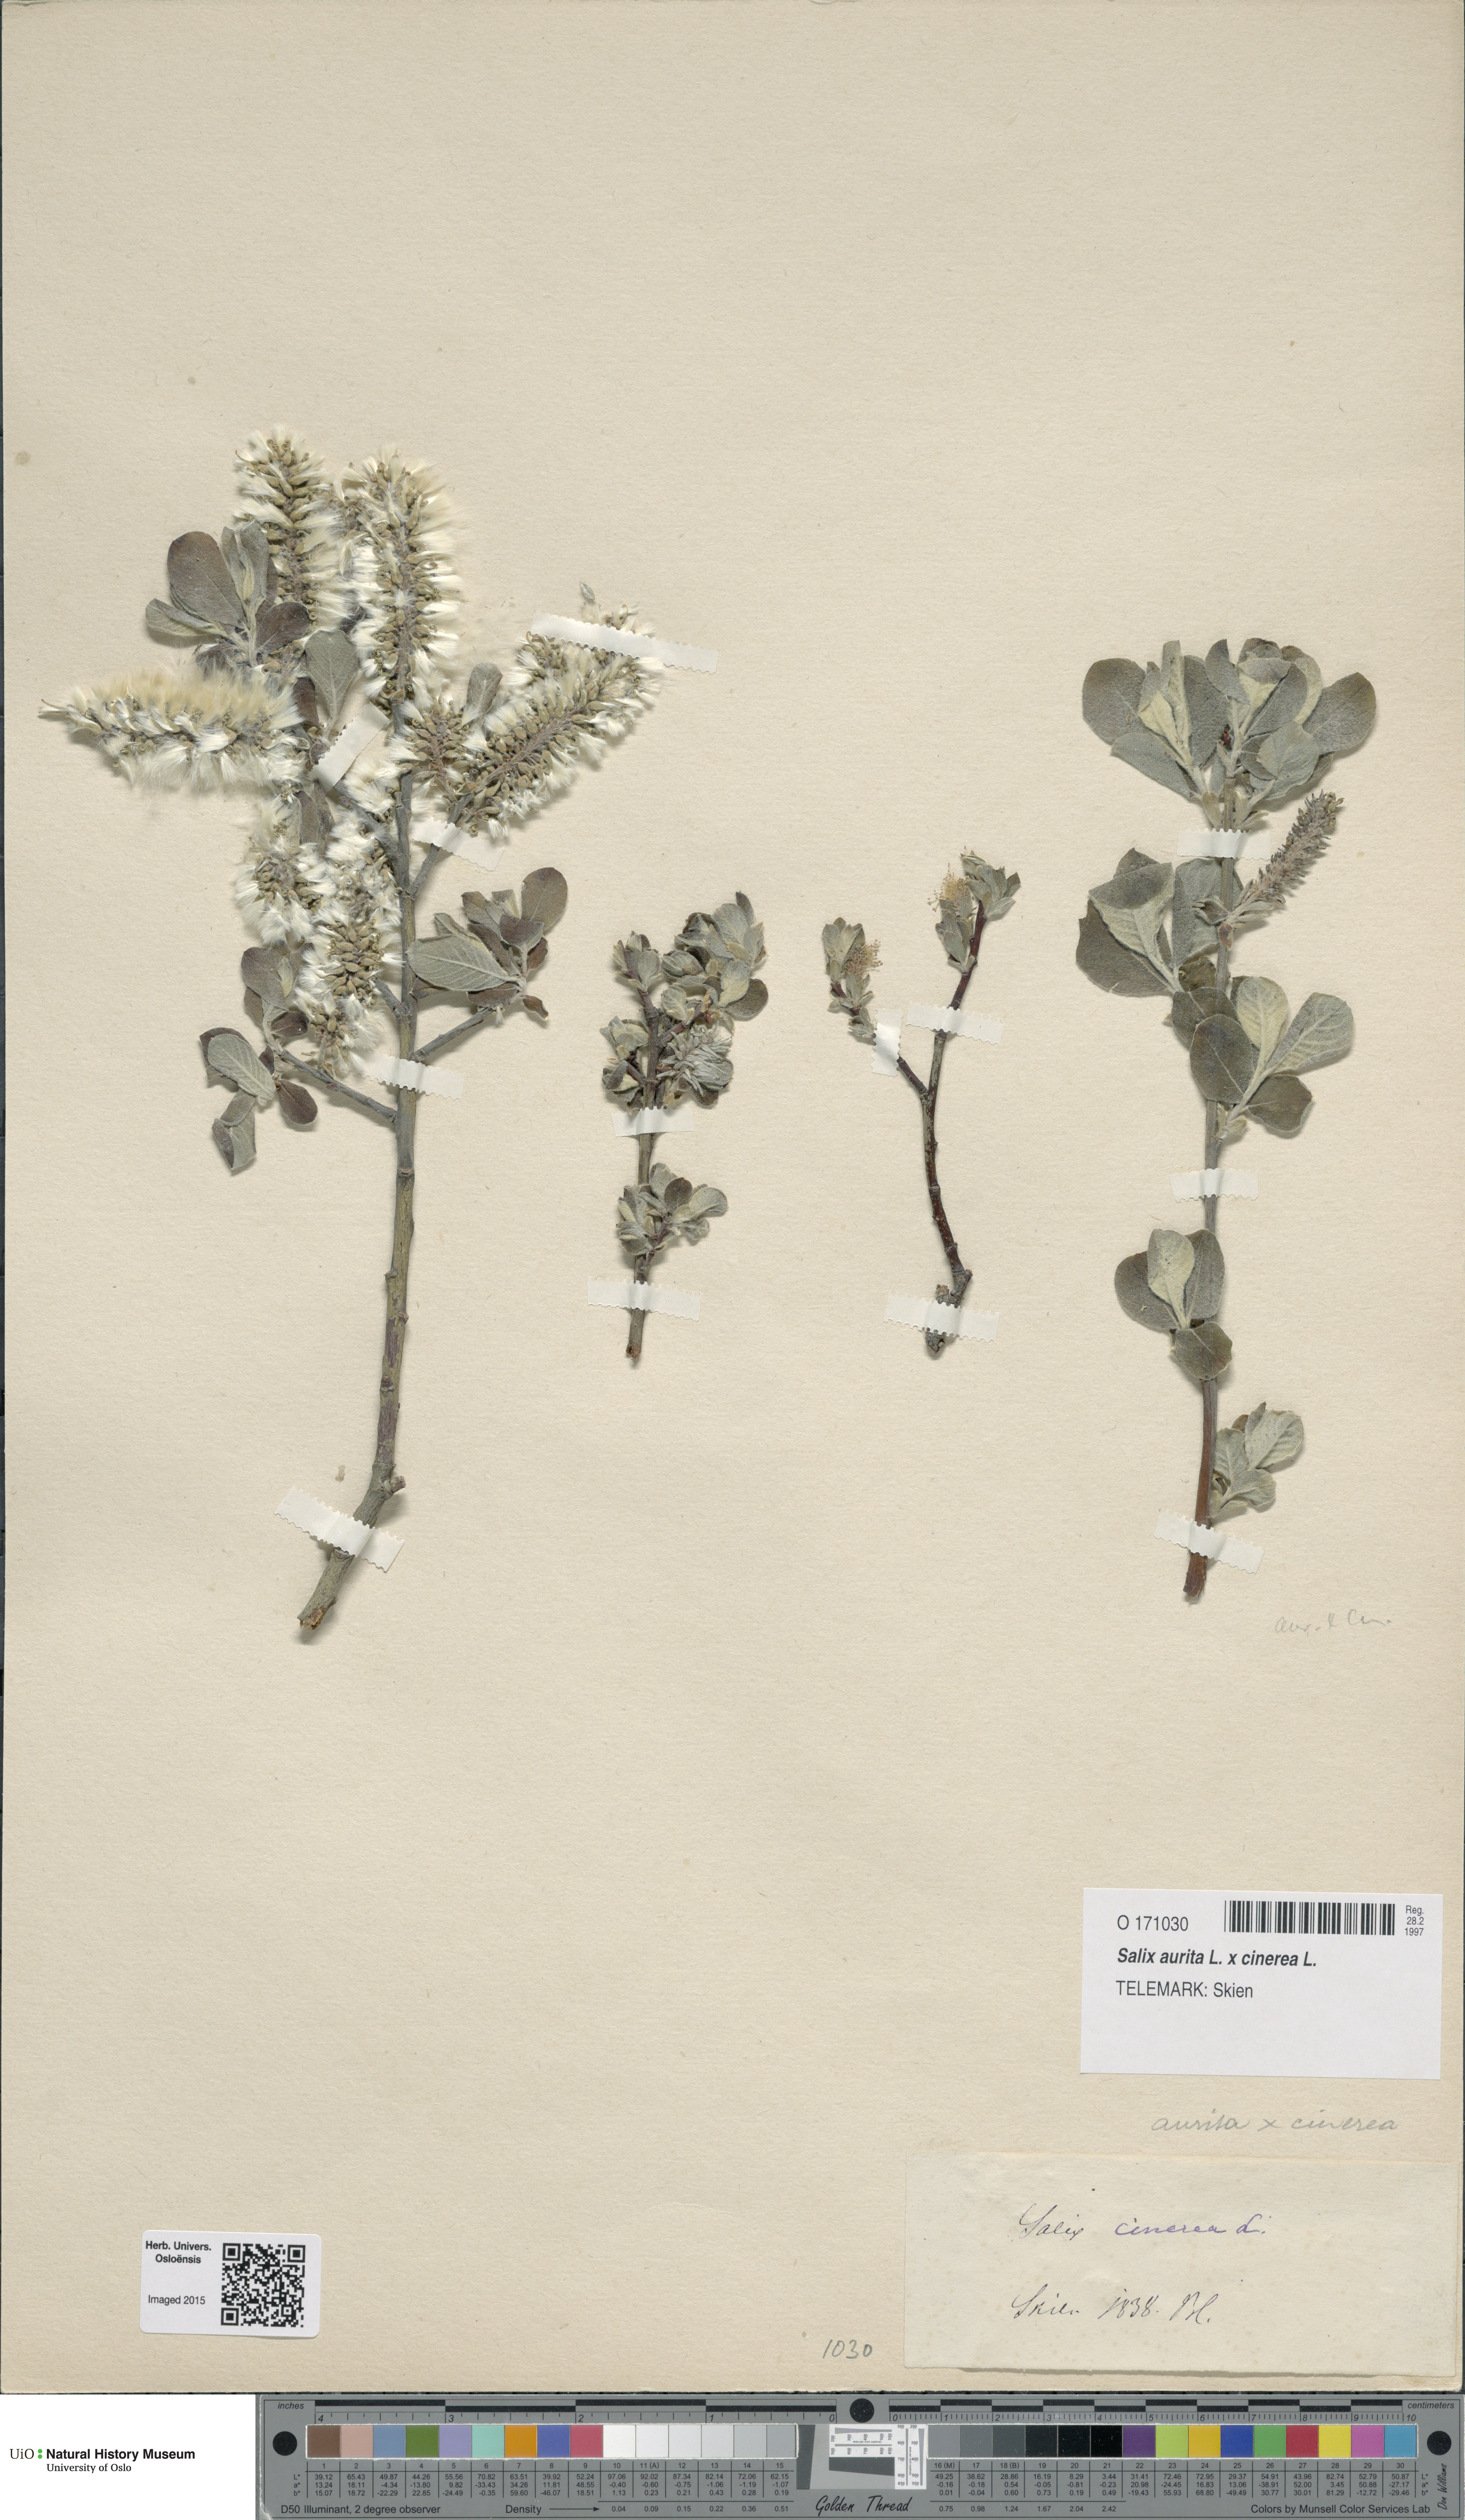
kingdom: Plantae
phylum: Tracheophyta
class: Magnoliopsida
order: Malpighiales
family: Salicaceae
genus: Salix
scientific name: Salix
